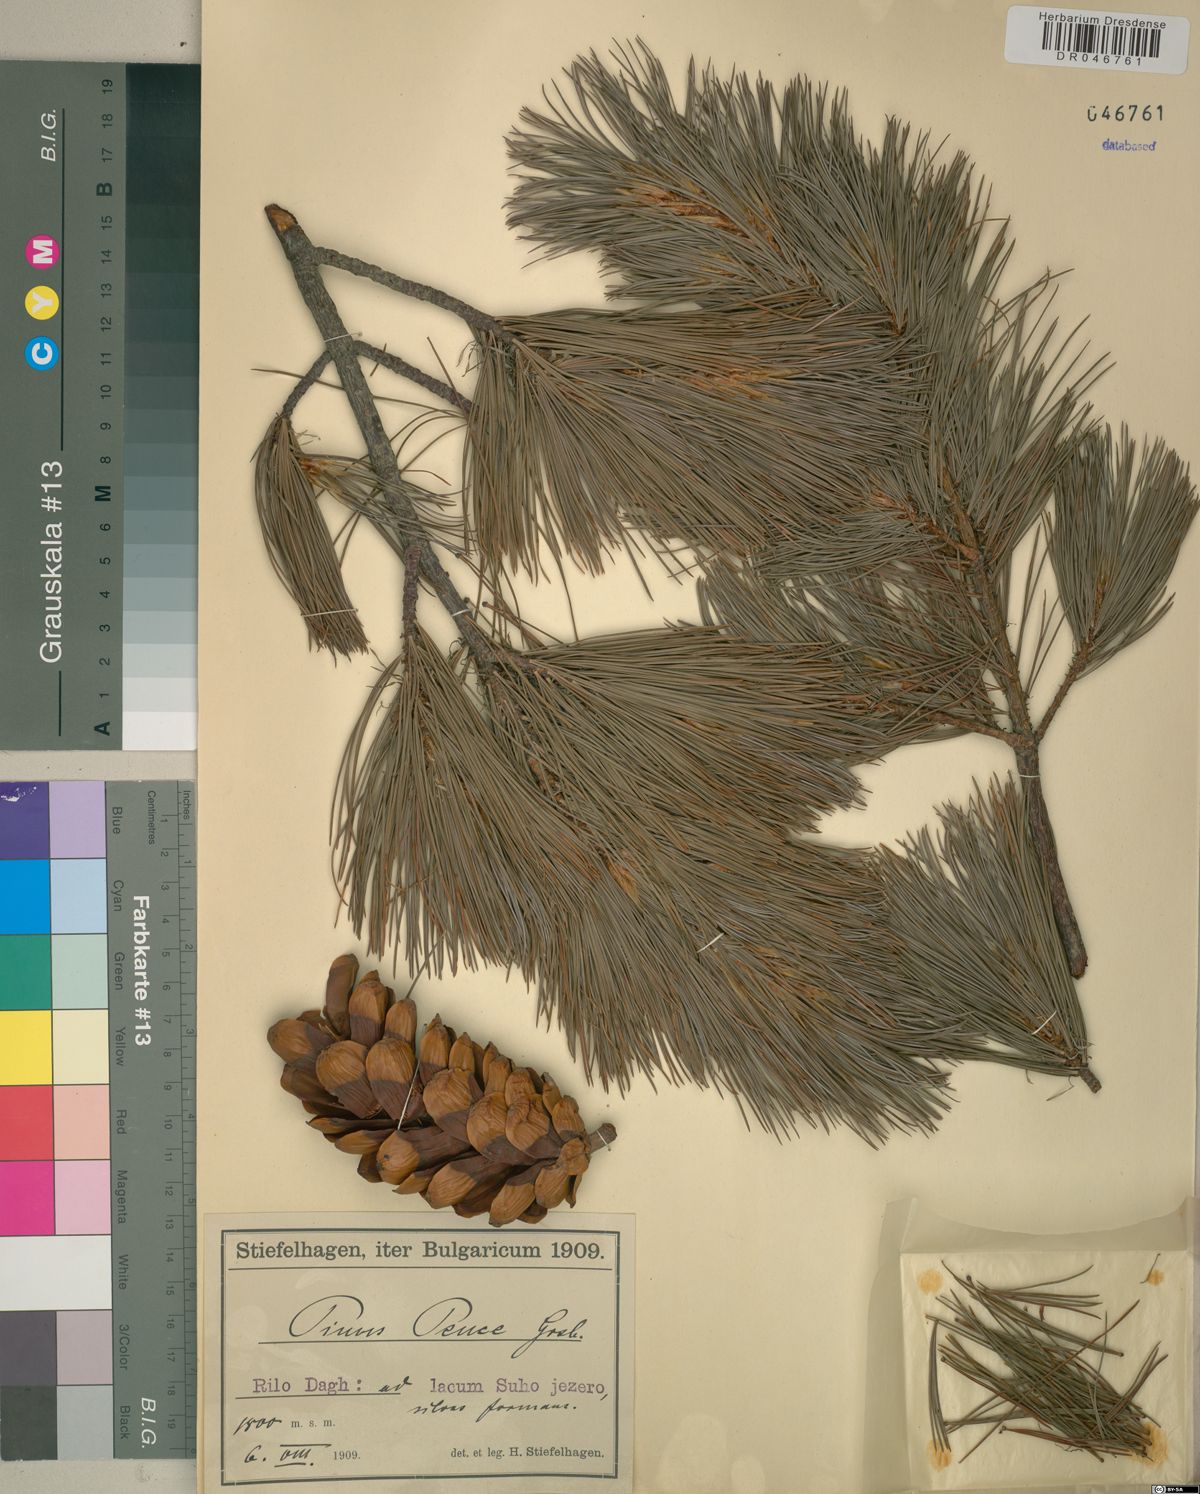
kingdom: Plantae
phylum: Tracheophyta
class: Pinopsida
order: Pinales
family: Pinaceae
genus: Pinus
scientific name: Pinus peuce
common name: Macedonian pine
